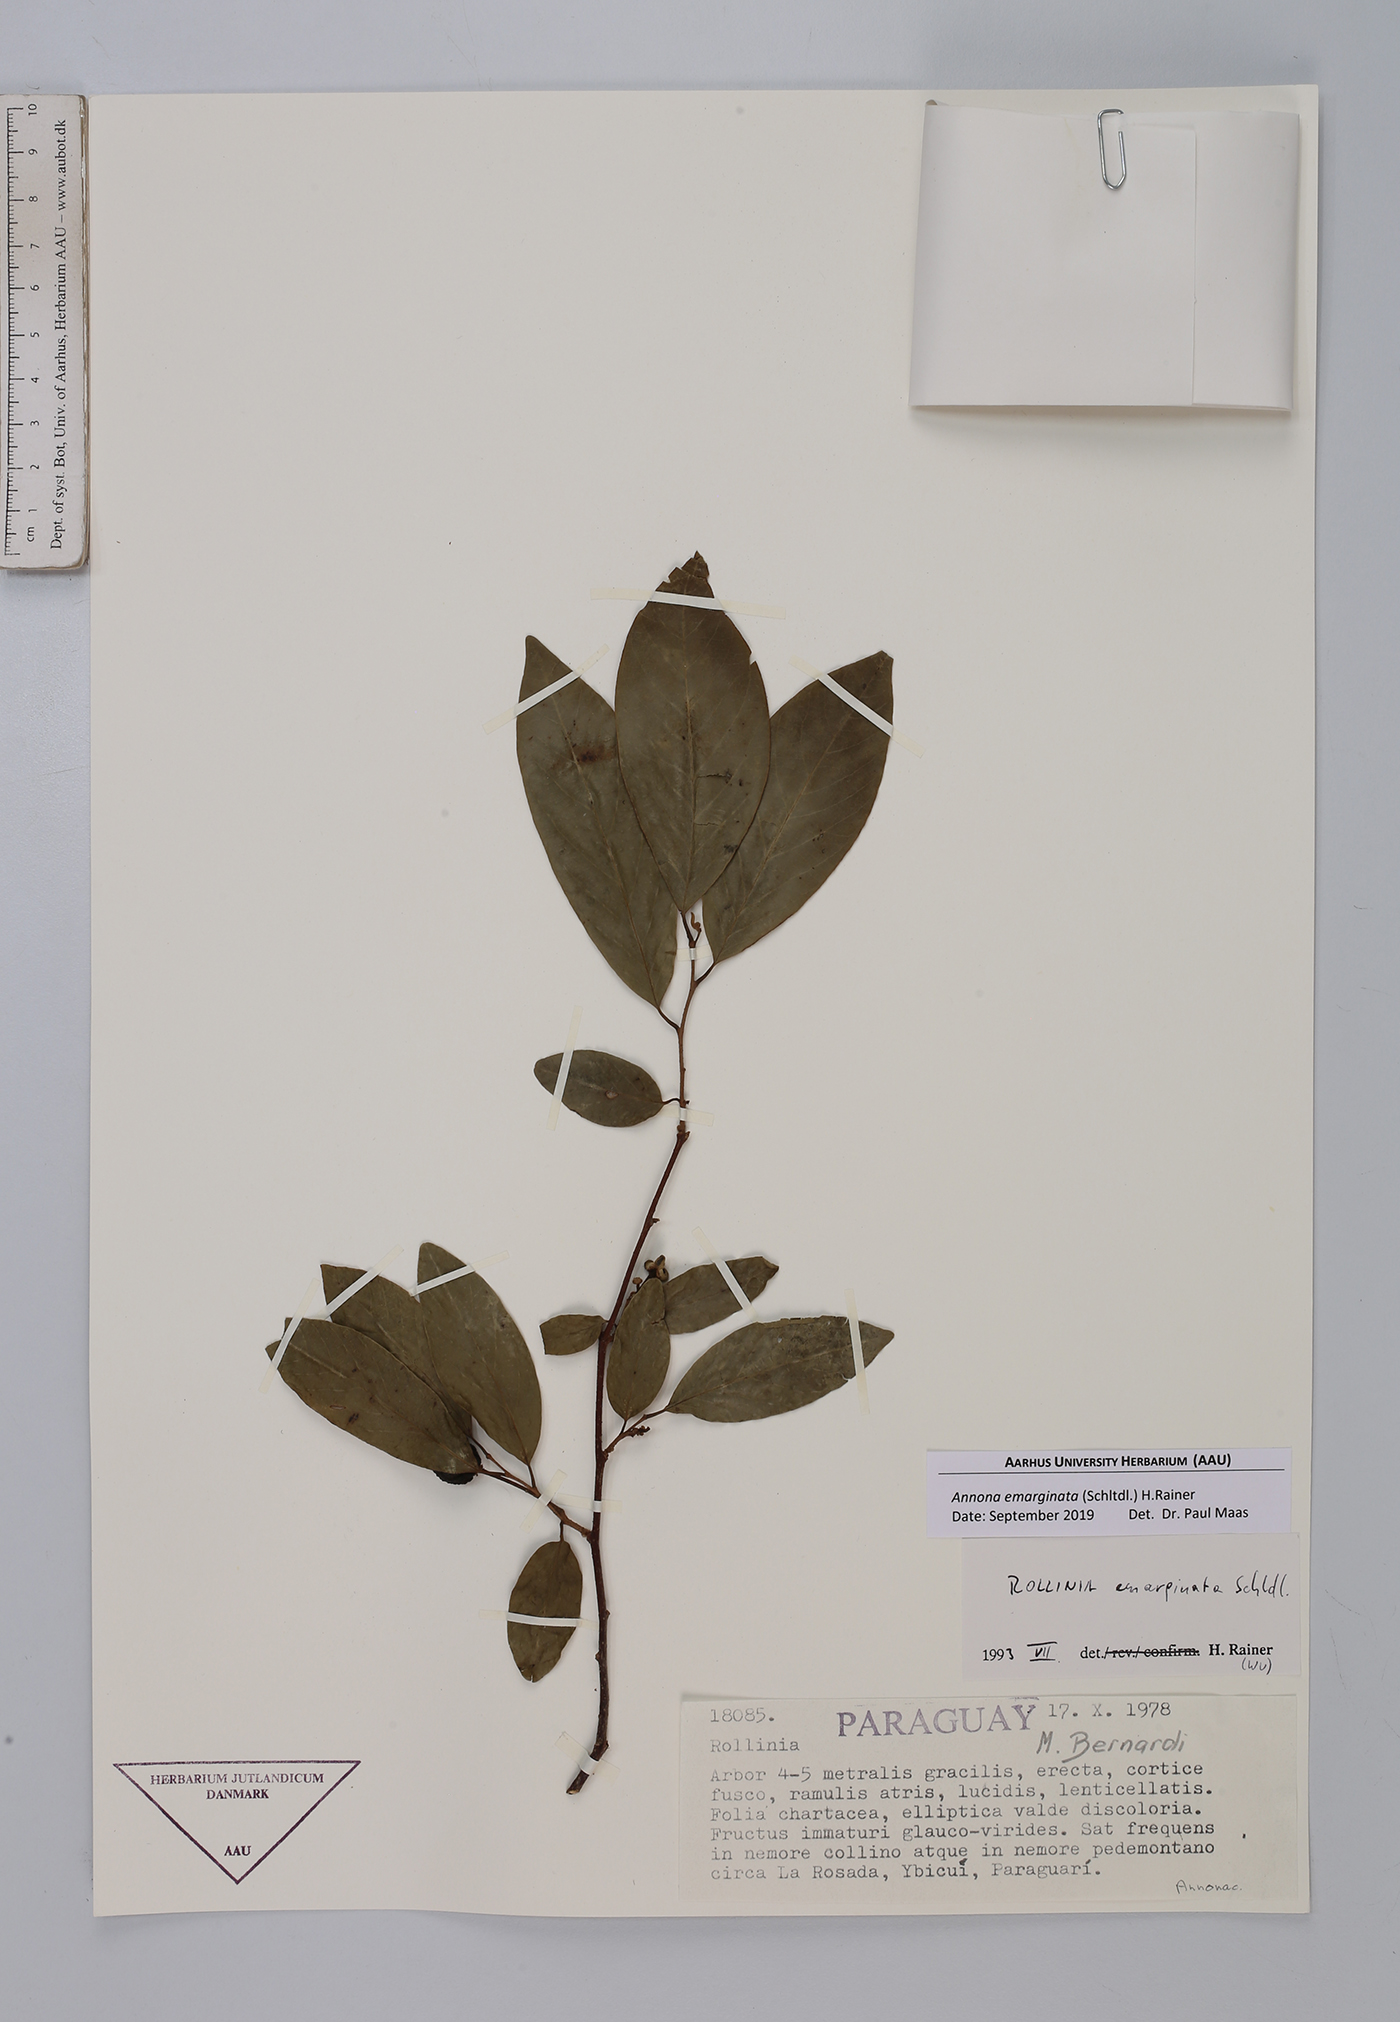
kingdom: Plantae
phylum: Tracheophyta
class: Magnoliopsida
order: Magnoliales
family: Annonaceae
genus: Annona
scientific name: Annona emarginata
